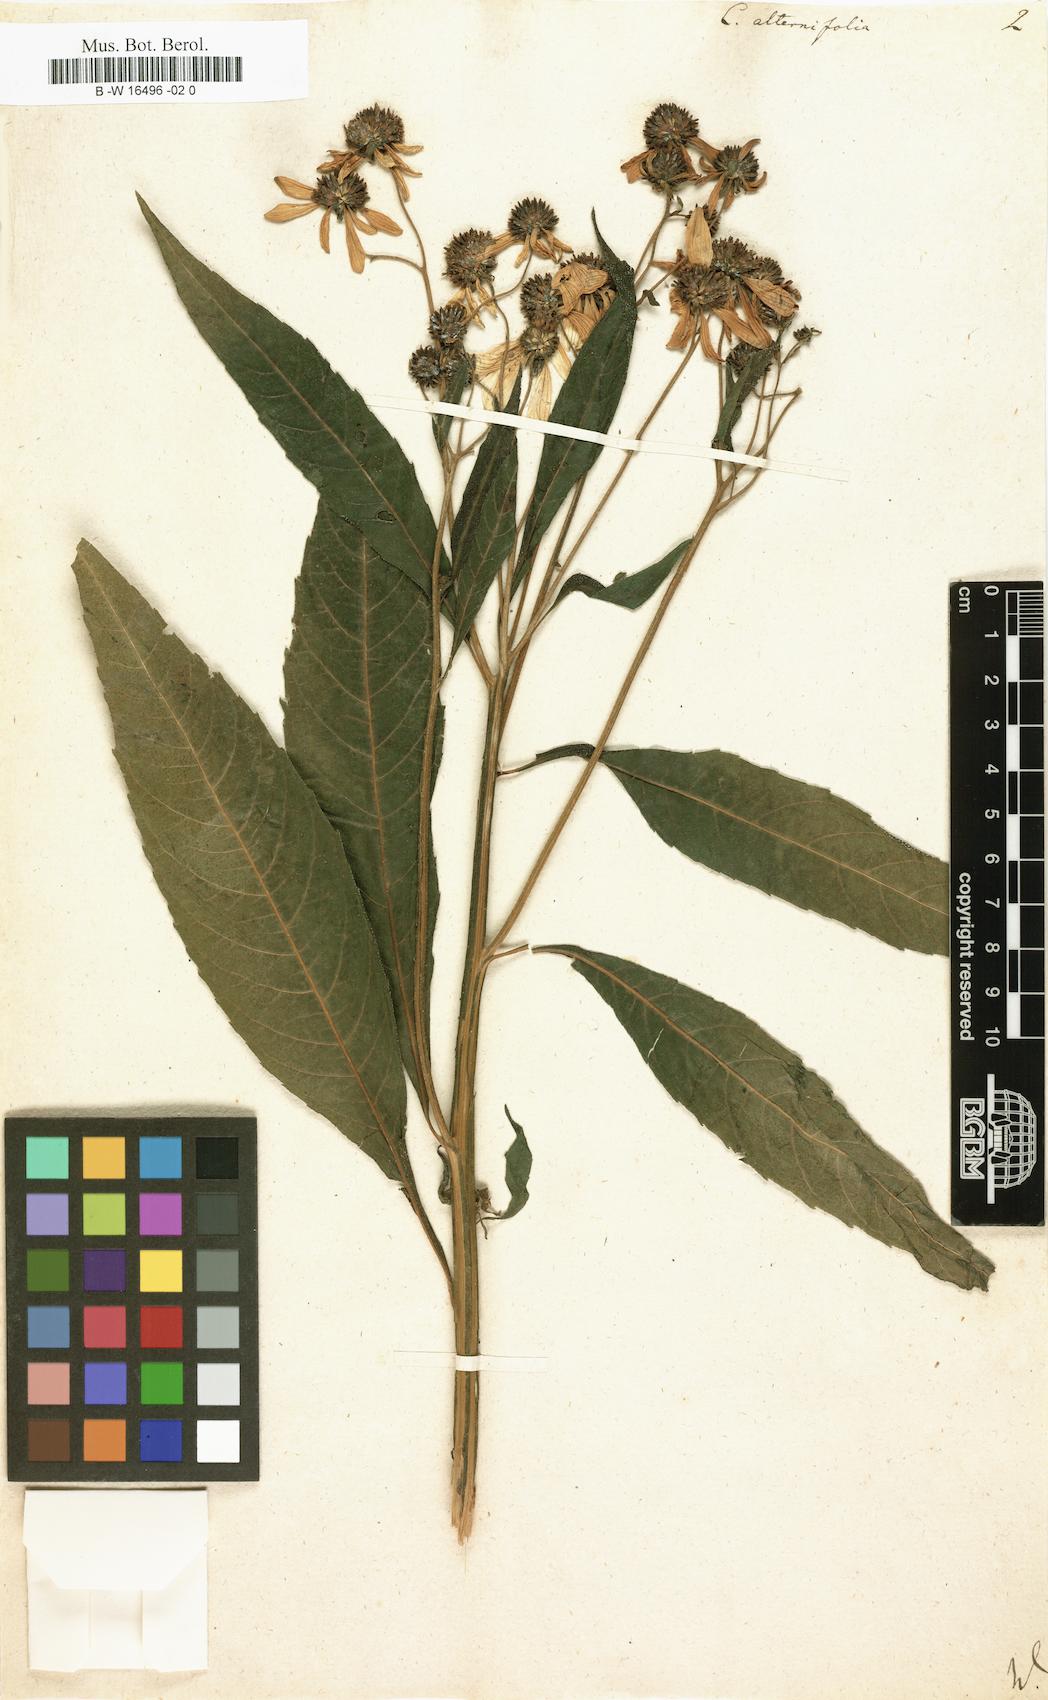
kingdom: Plantae
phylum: Tracheophyta
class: Magnoliopsida
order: Asterales
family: Asteraceae
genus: Verbesina
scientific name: Verbesina alternifolia
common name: Wingstem
